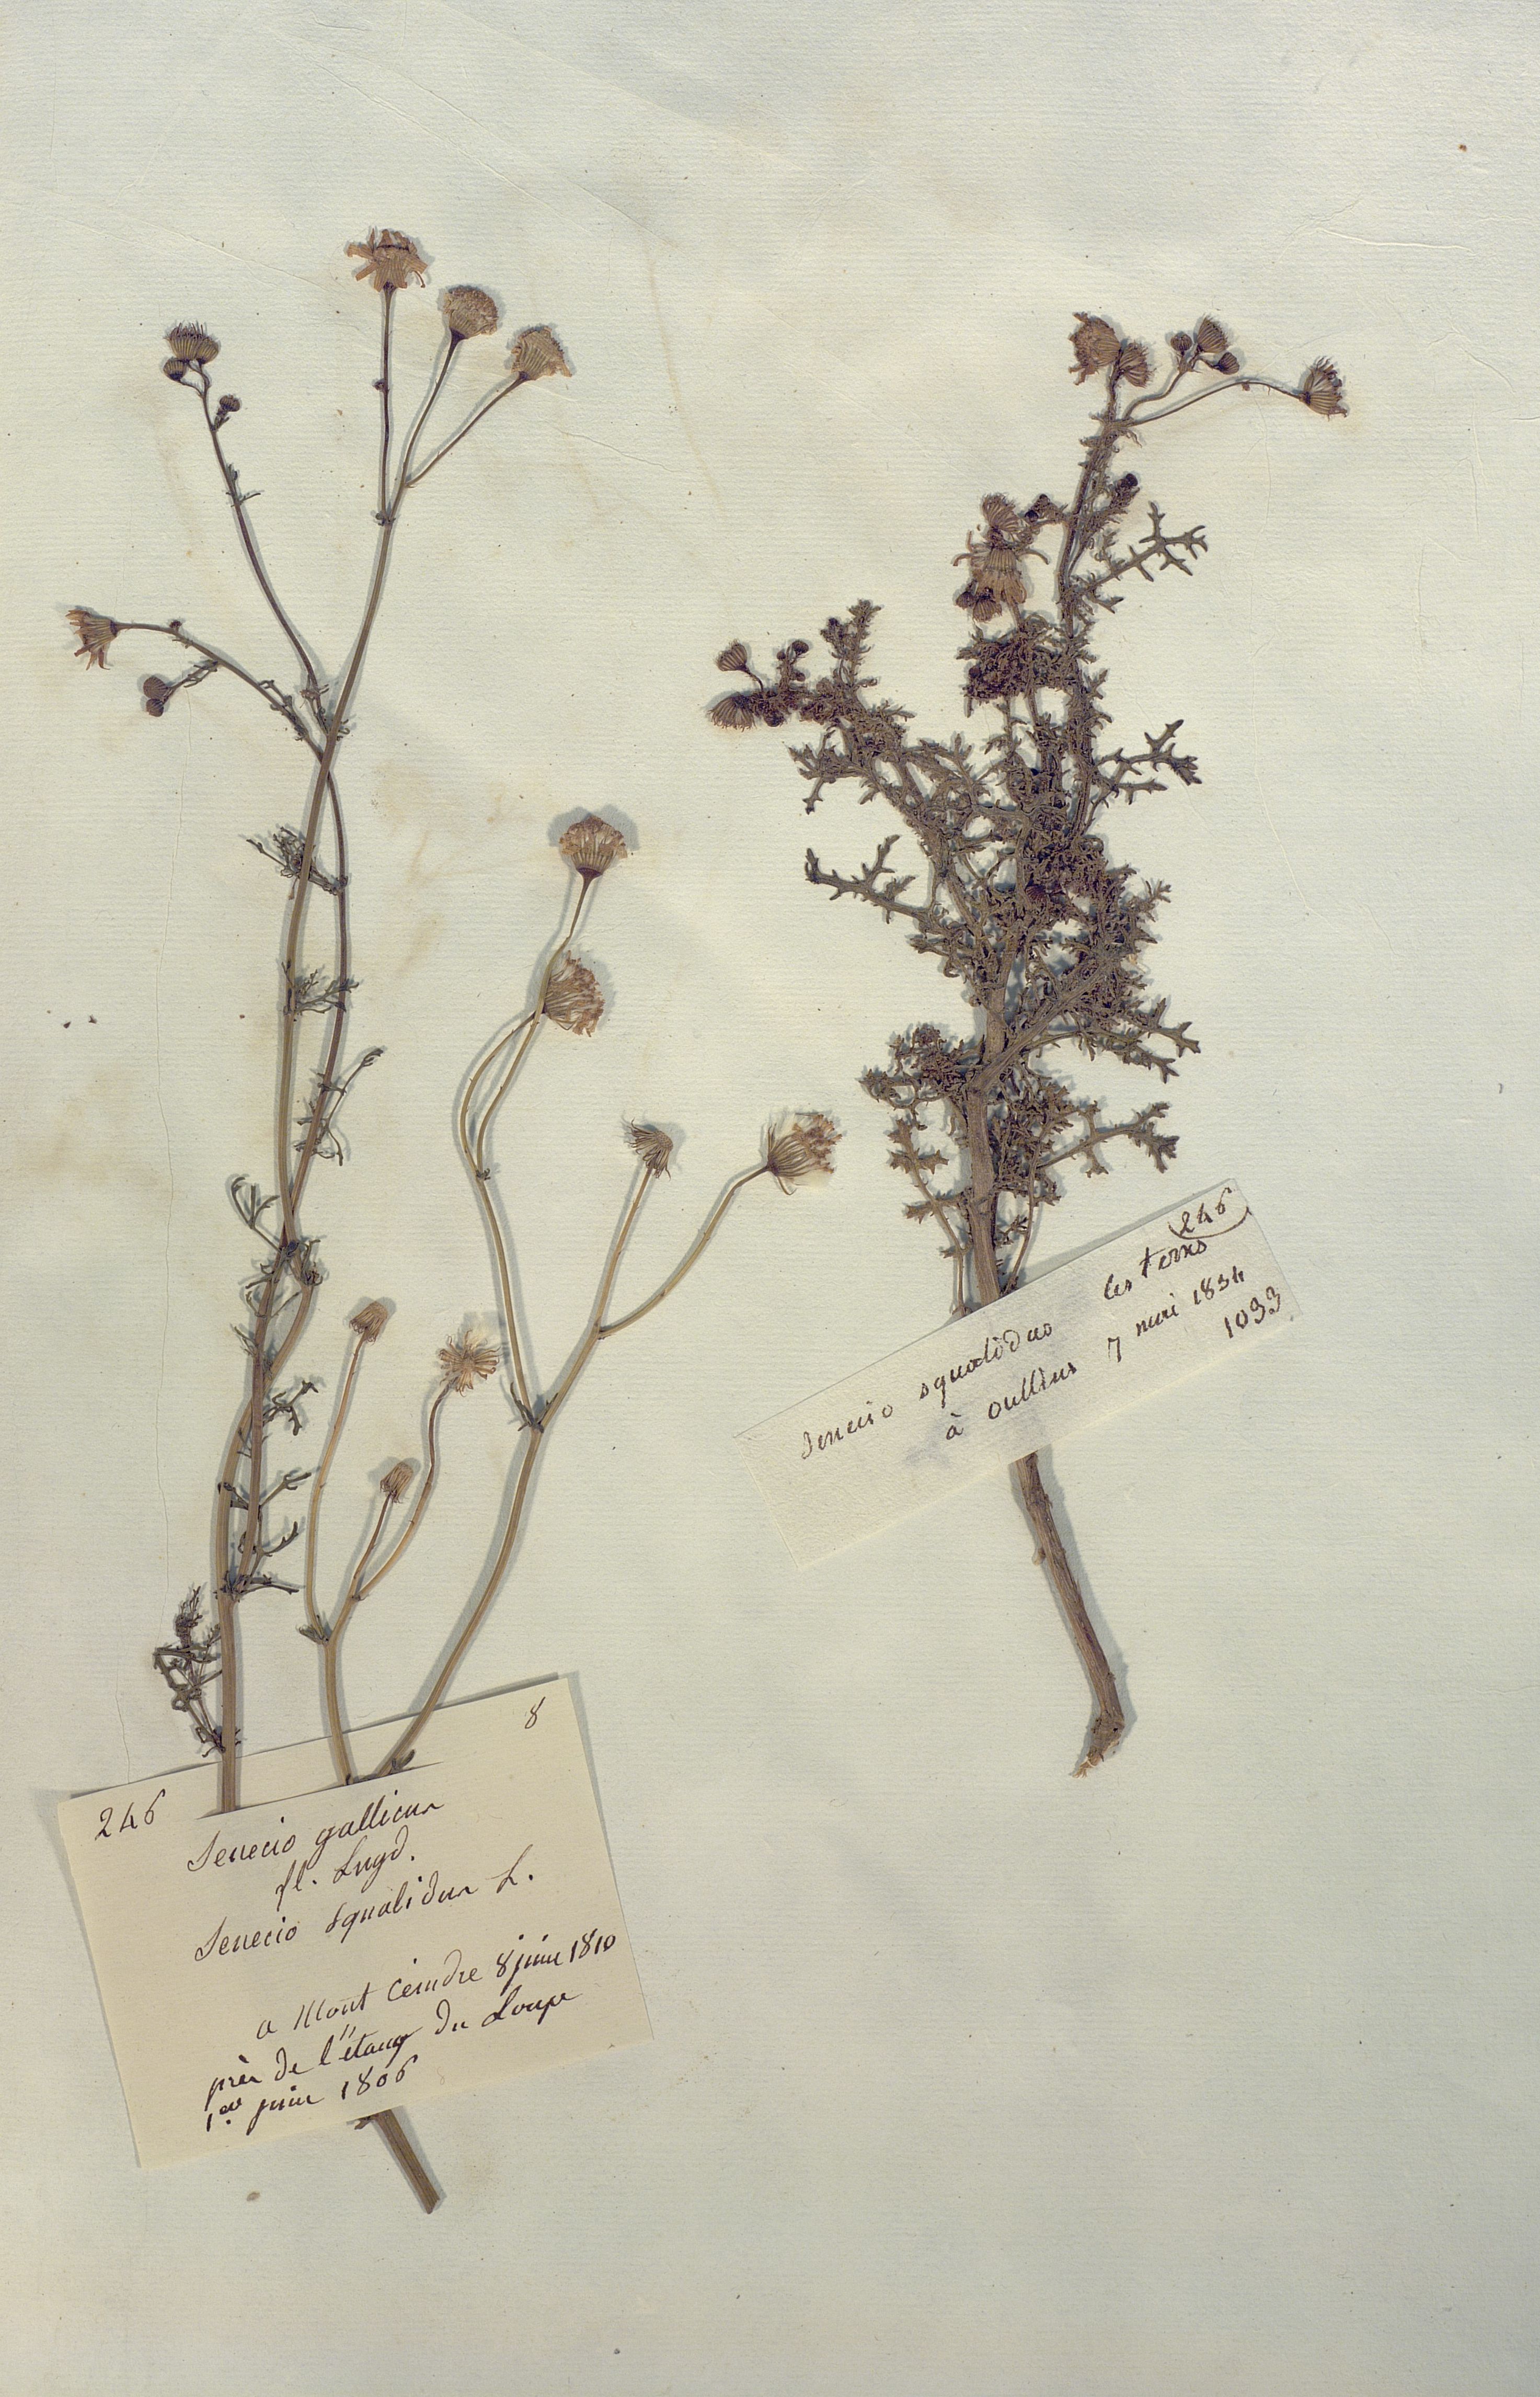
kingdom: Plantae
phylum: Tracheophyta
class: Magnoliopsida
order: Asterales
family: Asteraceae
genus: Senecio
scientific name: Senecio squalidus
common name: Oxford ragwort
